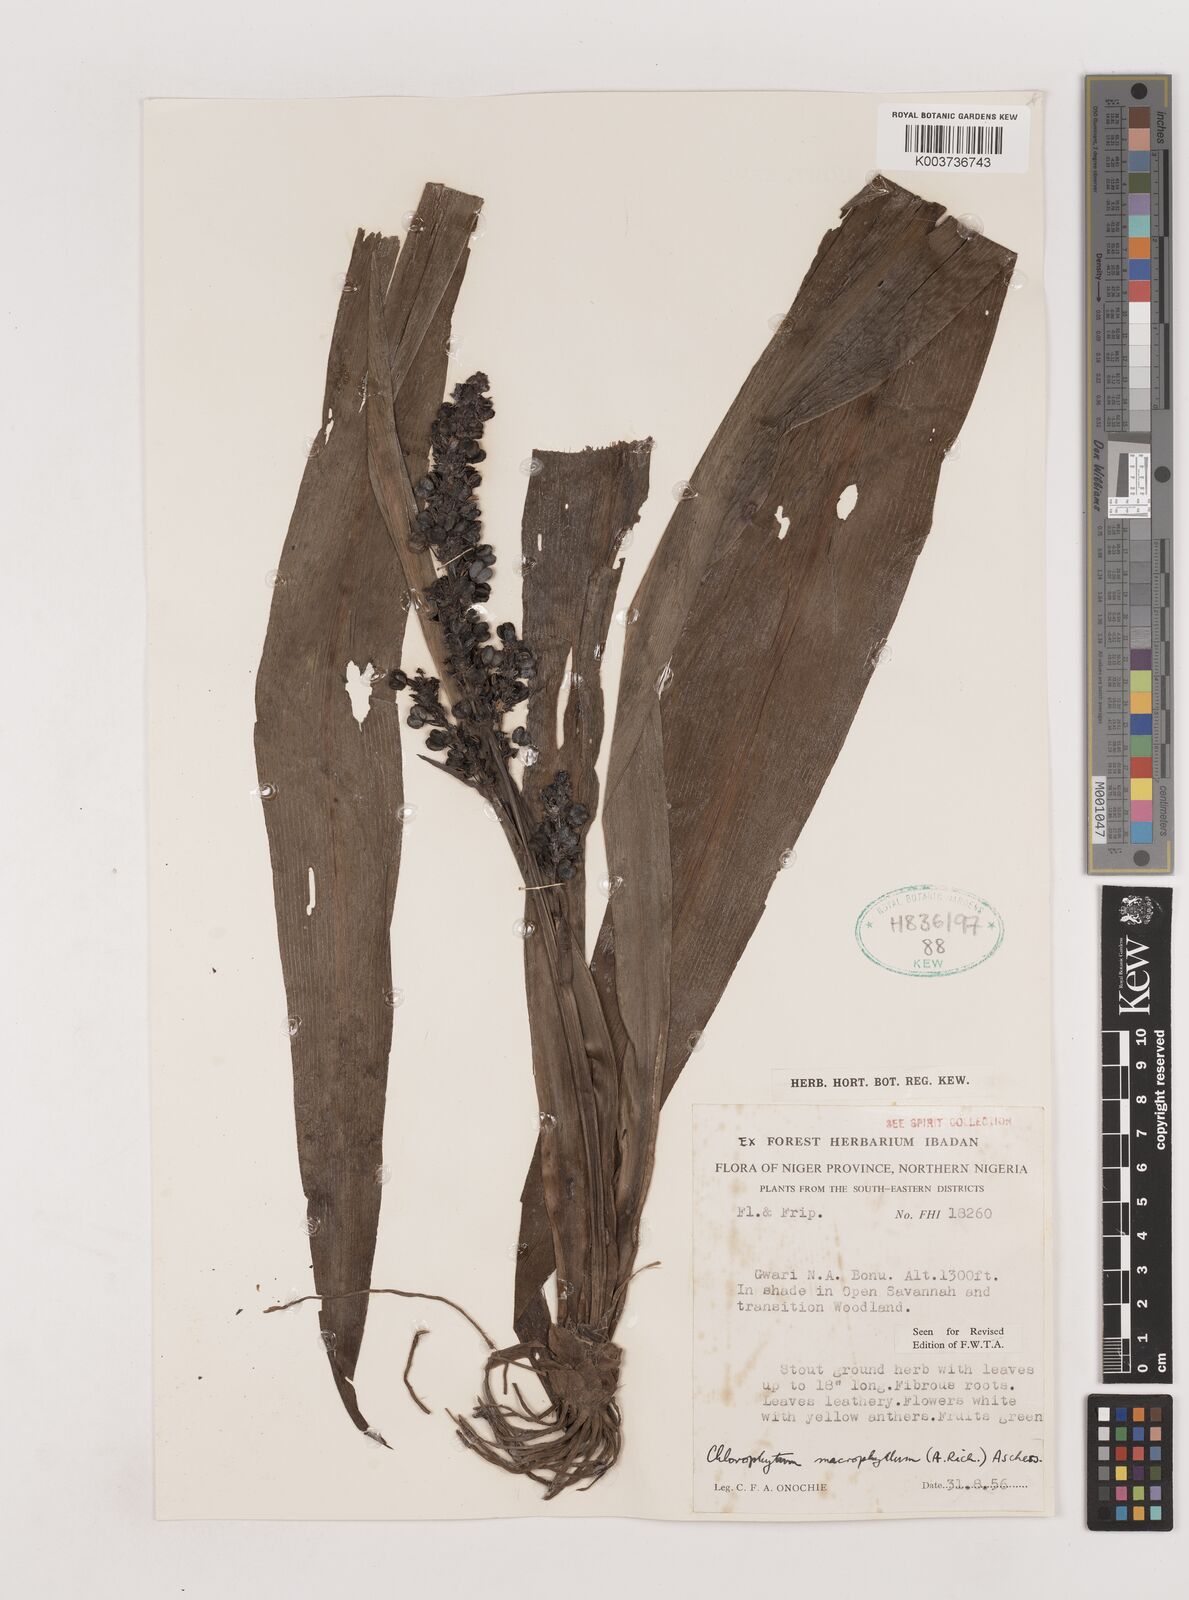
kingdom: Plantae
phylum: Tracheophyta
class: Liliopsida
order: Asparagales
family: Asparagaceae
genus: Chlorophytum
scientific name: Chlorophytum macrophyllum
